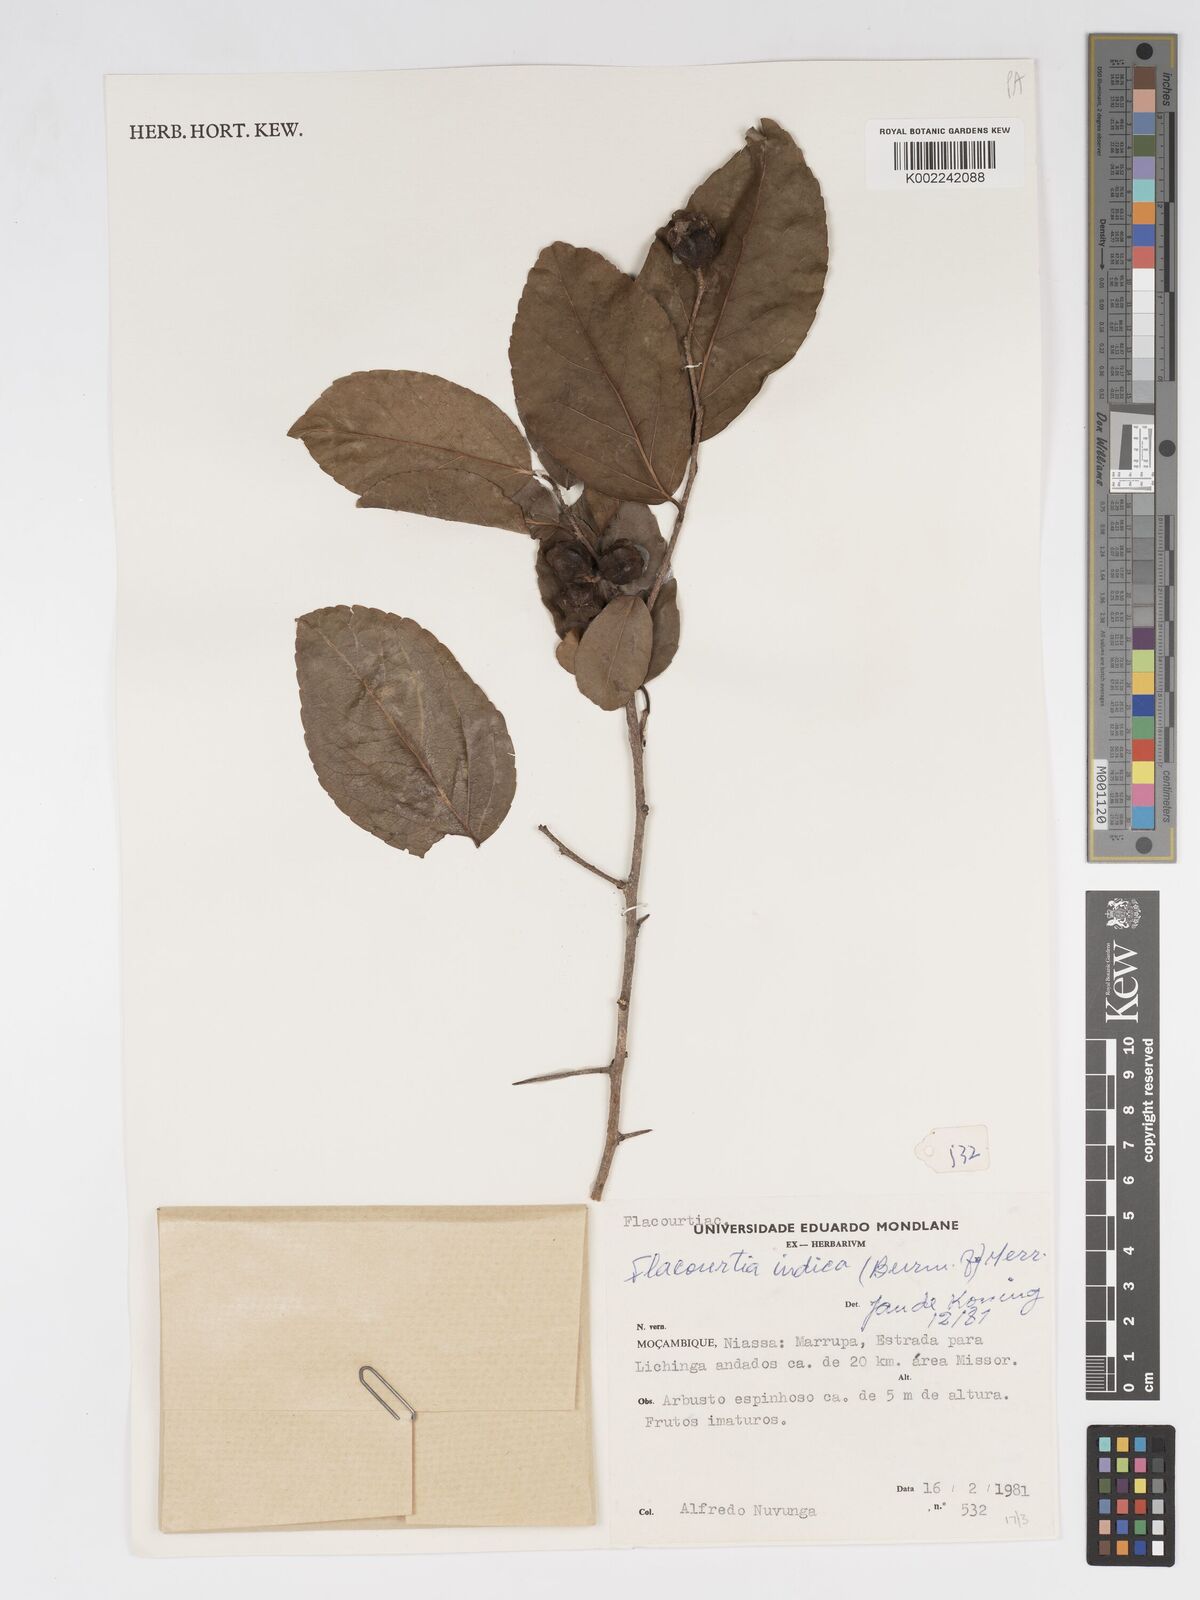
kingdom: Plantae
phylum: Tracheophyta
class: Magnoliopsida
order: Malpighiales
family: Salicaceae
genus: Flacourtia
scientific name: Flacourtia indica
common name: Governor's plum
